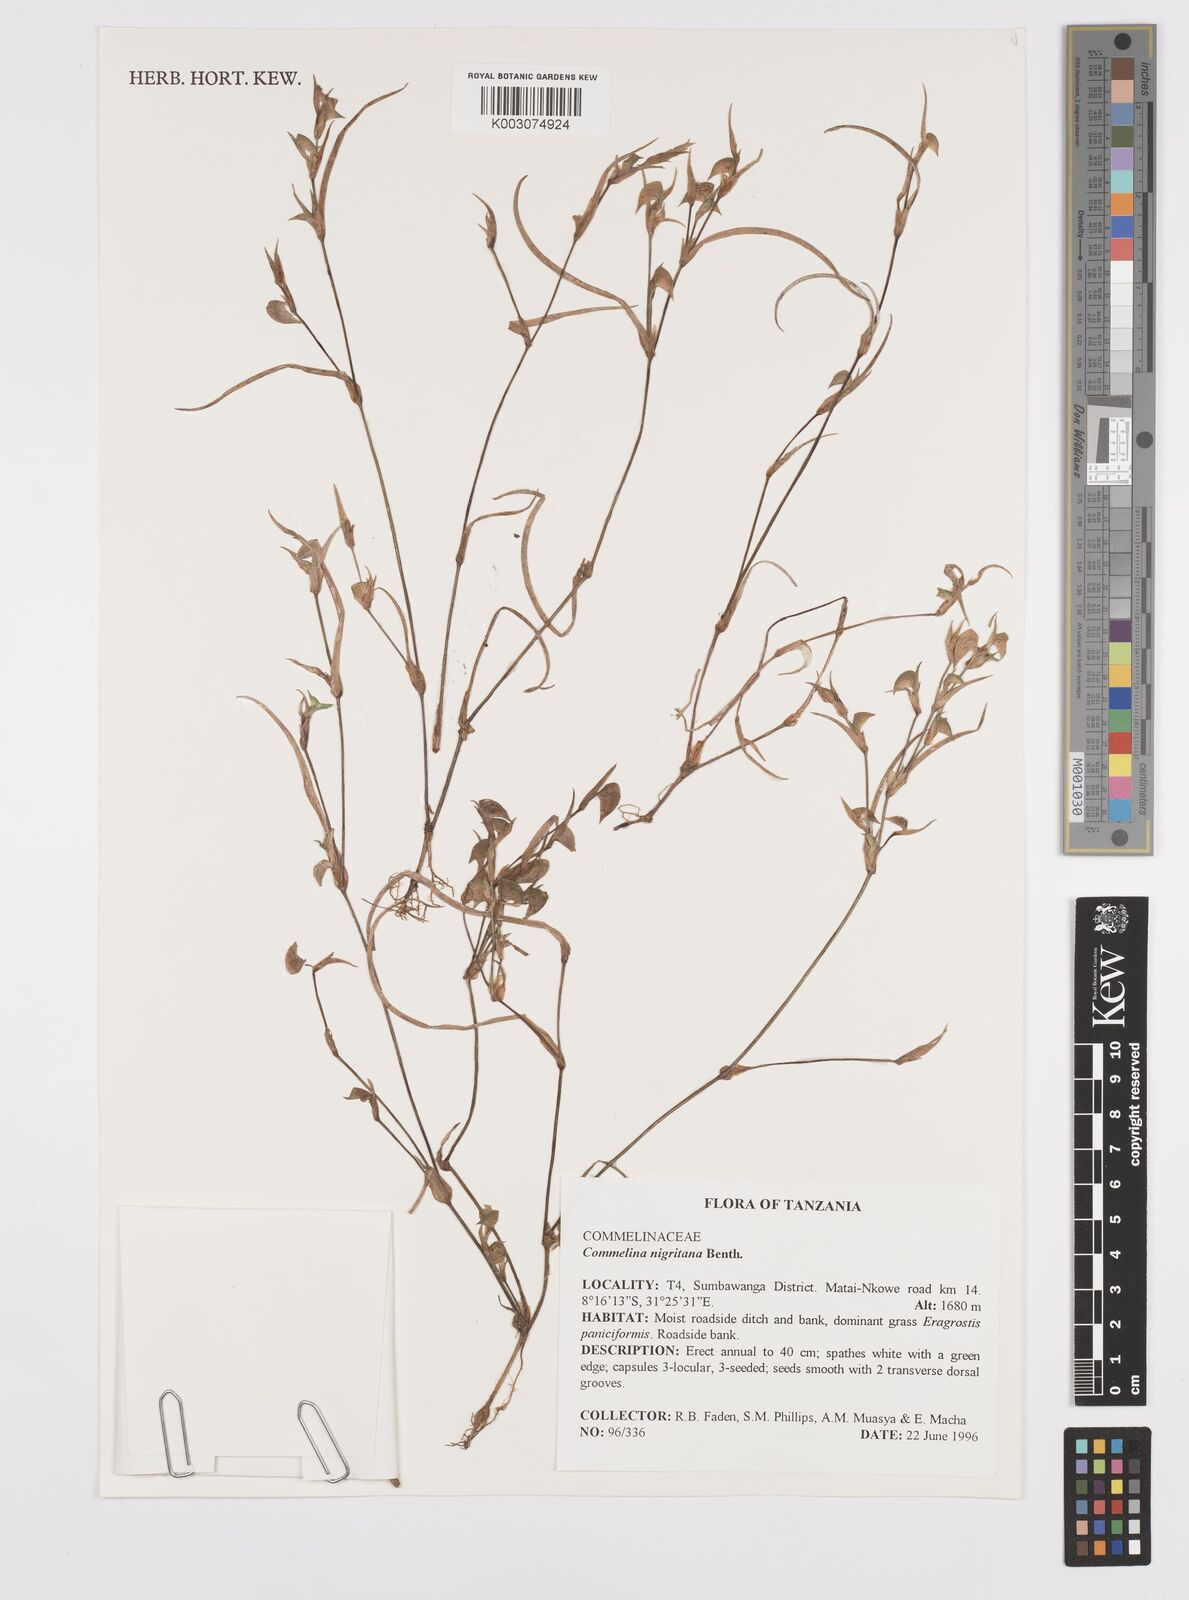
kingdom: Plantae
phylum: Tracheophyta
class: Liliopsida
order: Commelinales
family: Commelinaceae
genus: Commelina
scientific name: Commelina nigritana
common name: African dayflower
